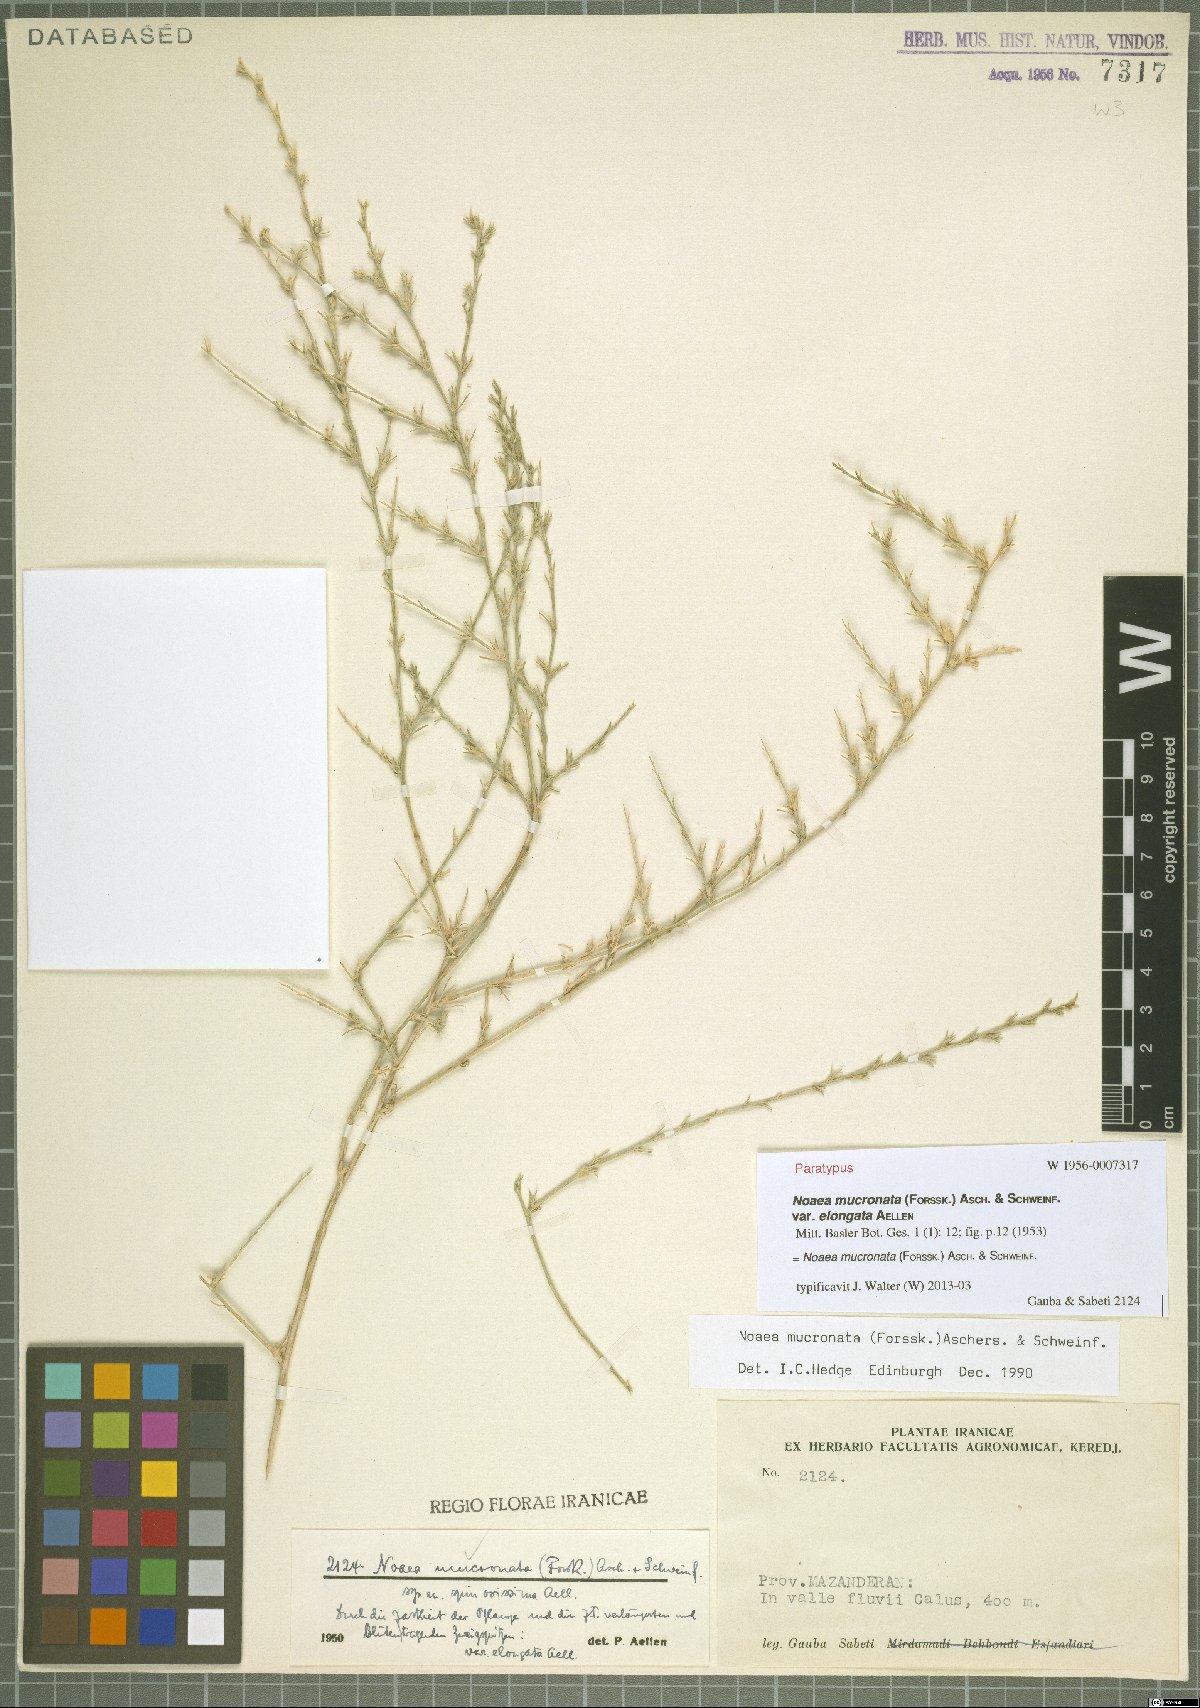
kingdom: Plantae
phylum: Tracheophyta
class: Magnoliopsida
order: Caryophyllales
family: Amaranthaceae
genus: Noaea
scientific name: Noaea mucronata
